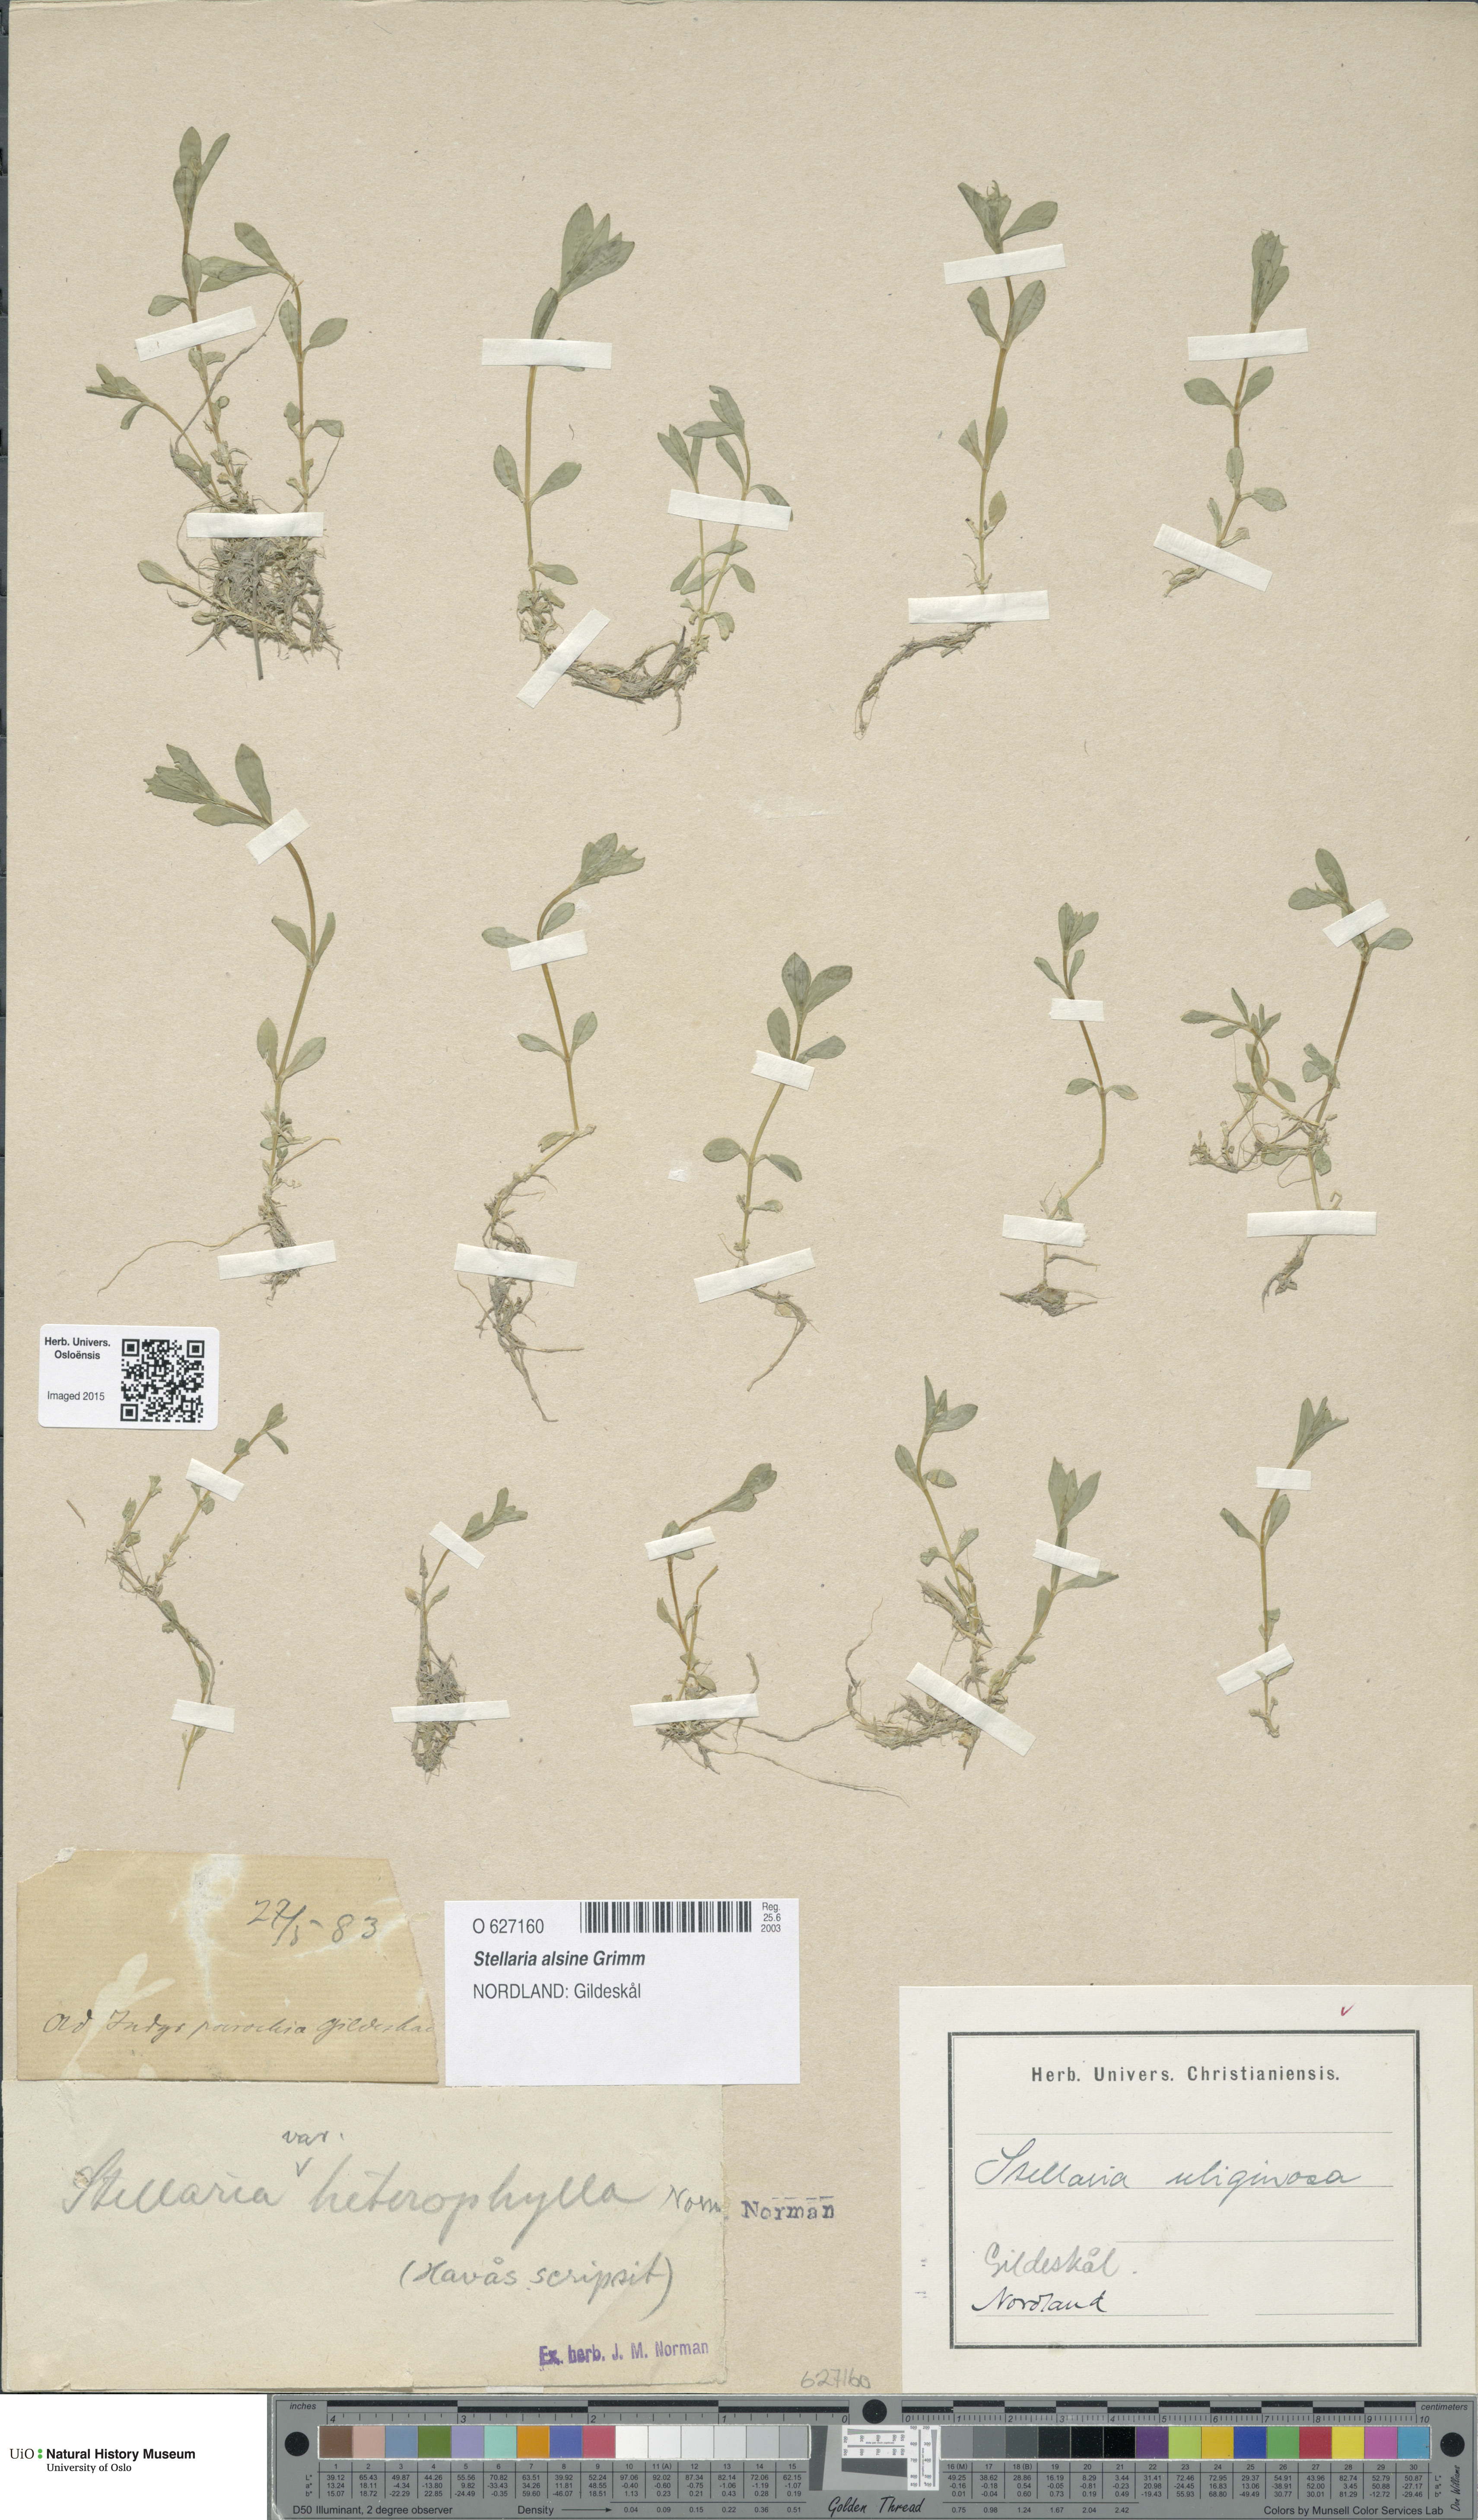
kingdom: Plantae
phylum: Tracheophyta
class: Magnoliopsida
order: Caryophyllales
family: Caryophyllaceae
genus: Stellaria
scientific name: Stellaria alsine
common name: Bog stitchwort
